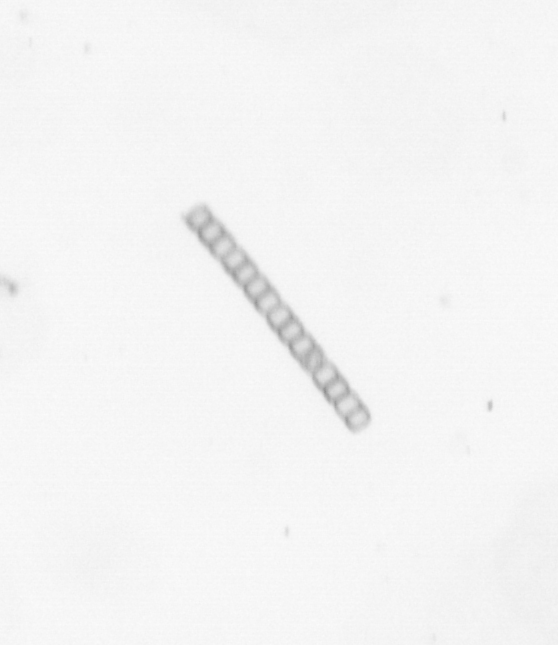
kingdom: Chromista
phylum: Ochrophyta
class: Bacillariophyceae
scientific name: Bacillariophyceae
